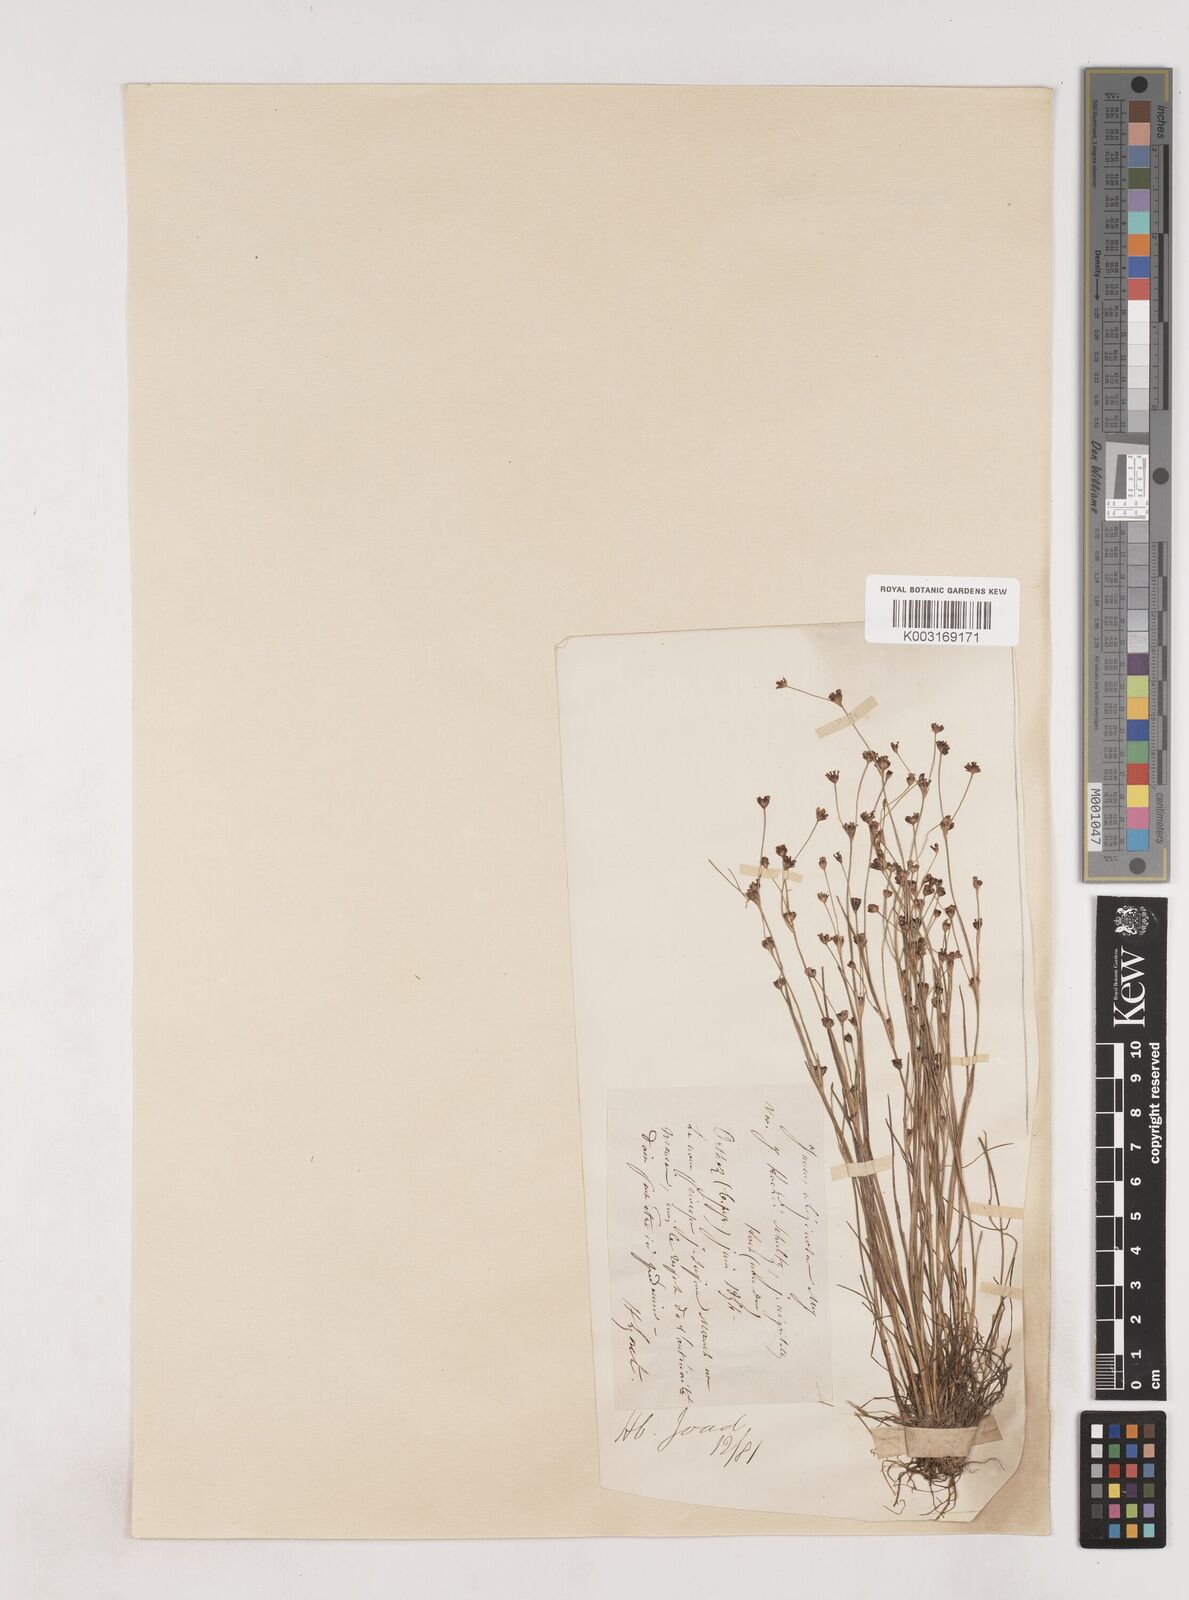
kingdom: Plantae
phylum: Tracheophyta
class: Liliopsida
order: Poales
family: Juncaceae
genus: Juncus
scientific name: Juncus bulbosus
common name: Bulbous rush
